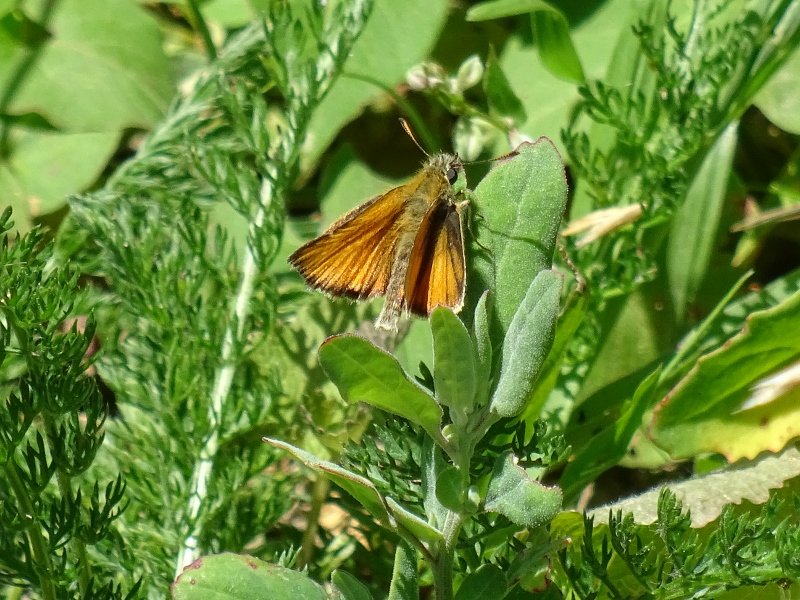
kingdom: Animalia
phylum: Arthropoda
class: Insecta
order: Lepidoptera
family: Hesperiidae
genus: Thymelicus
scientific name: Thymelicus lineola
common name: European Skipper
